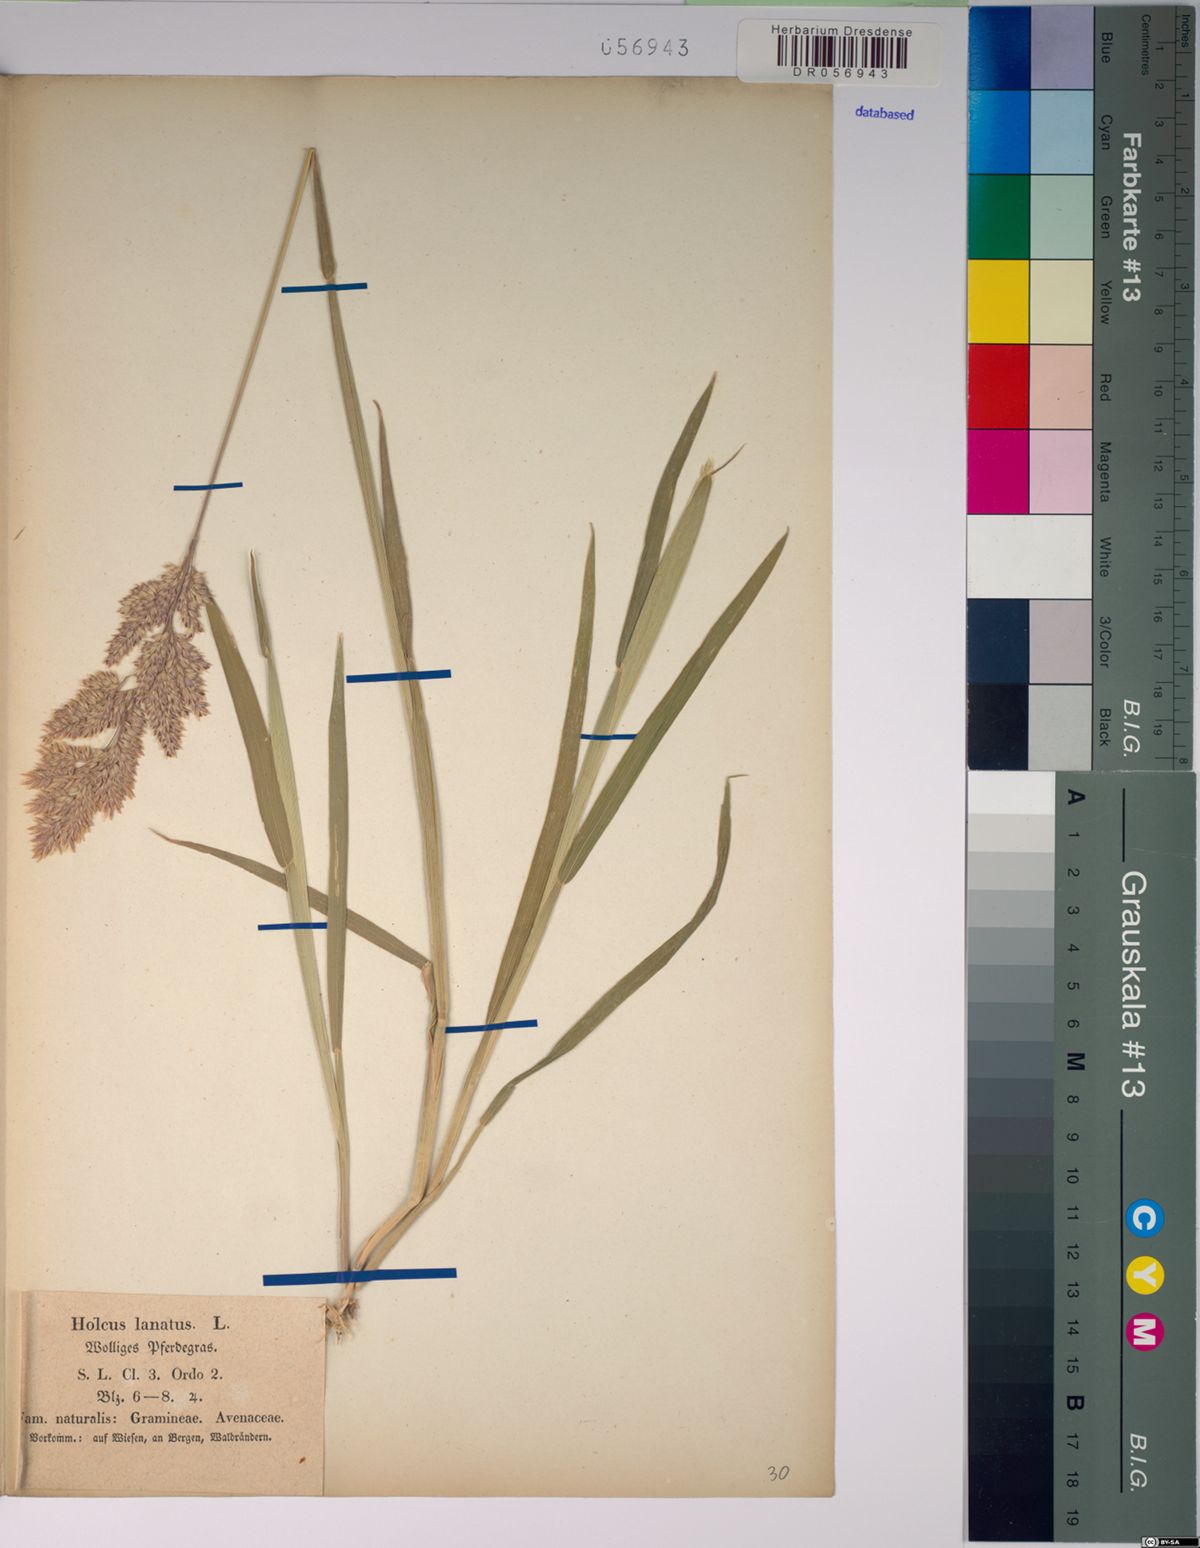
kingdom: Plantae
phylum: Tracheophyta
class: Liliopsida
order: Poales
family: Poaceae
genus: Holcus
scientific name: Holcus lanatus
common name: Yorkshire-fog
